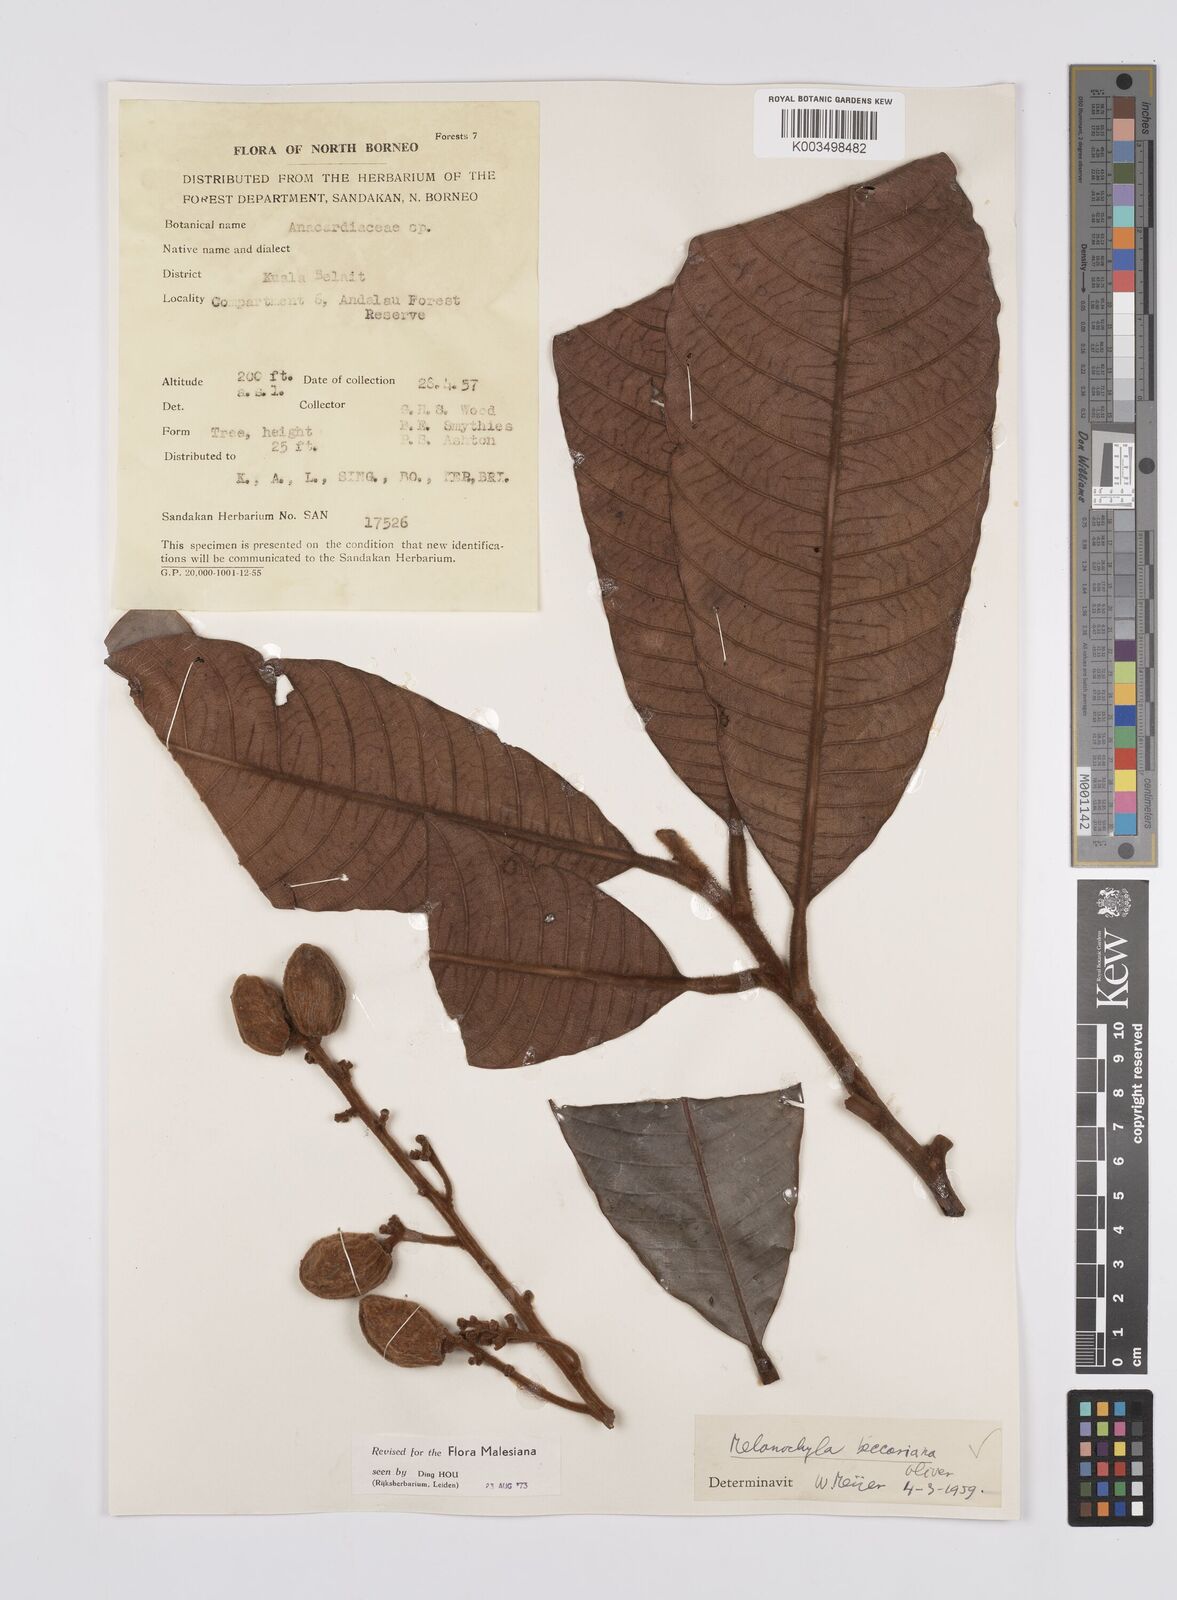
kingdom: Plantae
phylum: Tracheophyta
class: Magnoliopsida
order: Sapindales
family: Anacardiaceae
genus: Melanochyla
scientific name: Melanochyla beccariana
